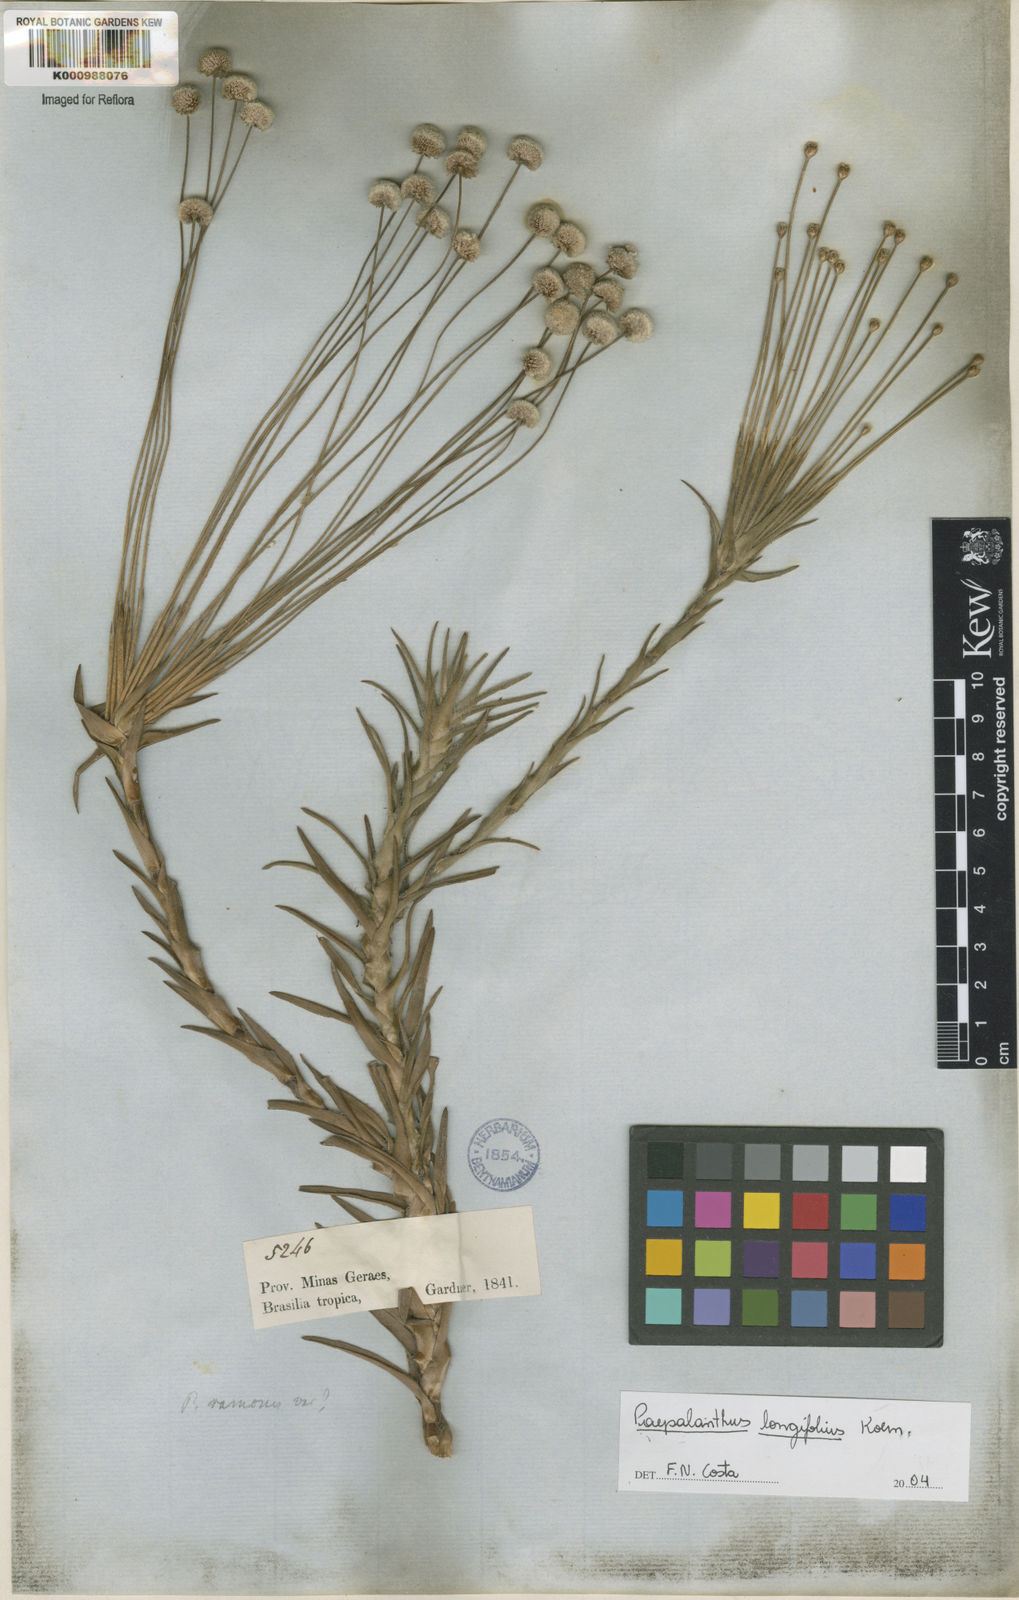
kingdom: Plantae
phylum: Tracheophyta
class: Liliopsida
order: Poales
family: Eriocaulaceae
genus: Paepalanthus
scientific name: Paepalanthus
